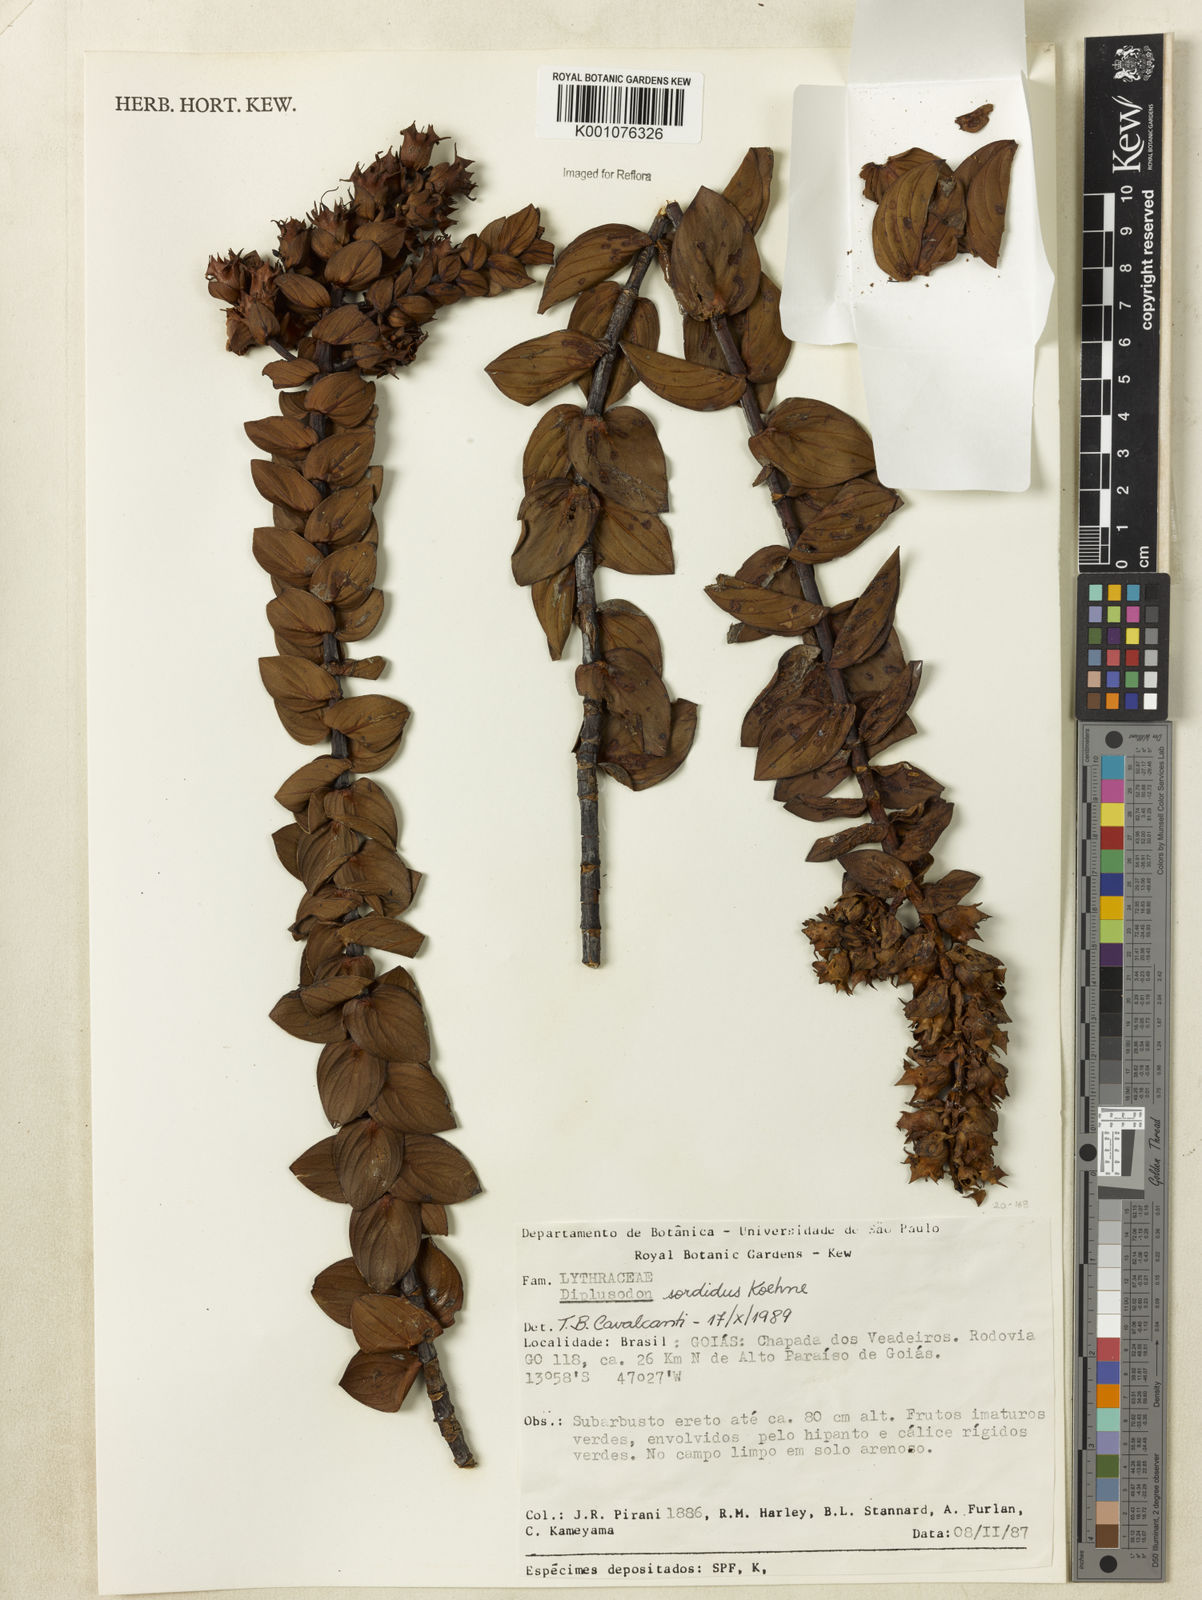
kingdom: Plantae
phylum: Tracheophyta
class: Magnoliopsida
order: Myrtales
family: Lythraceae
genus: Diplusodon
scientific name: Diplusodon sordidus
